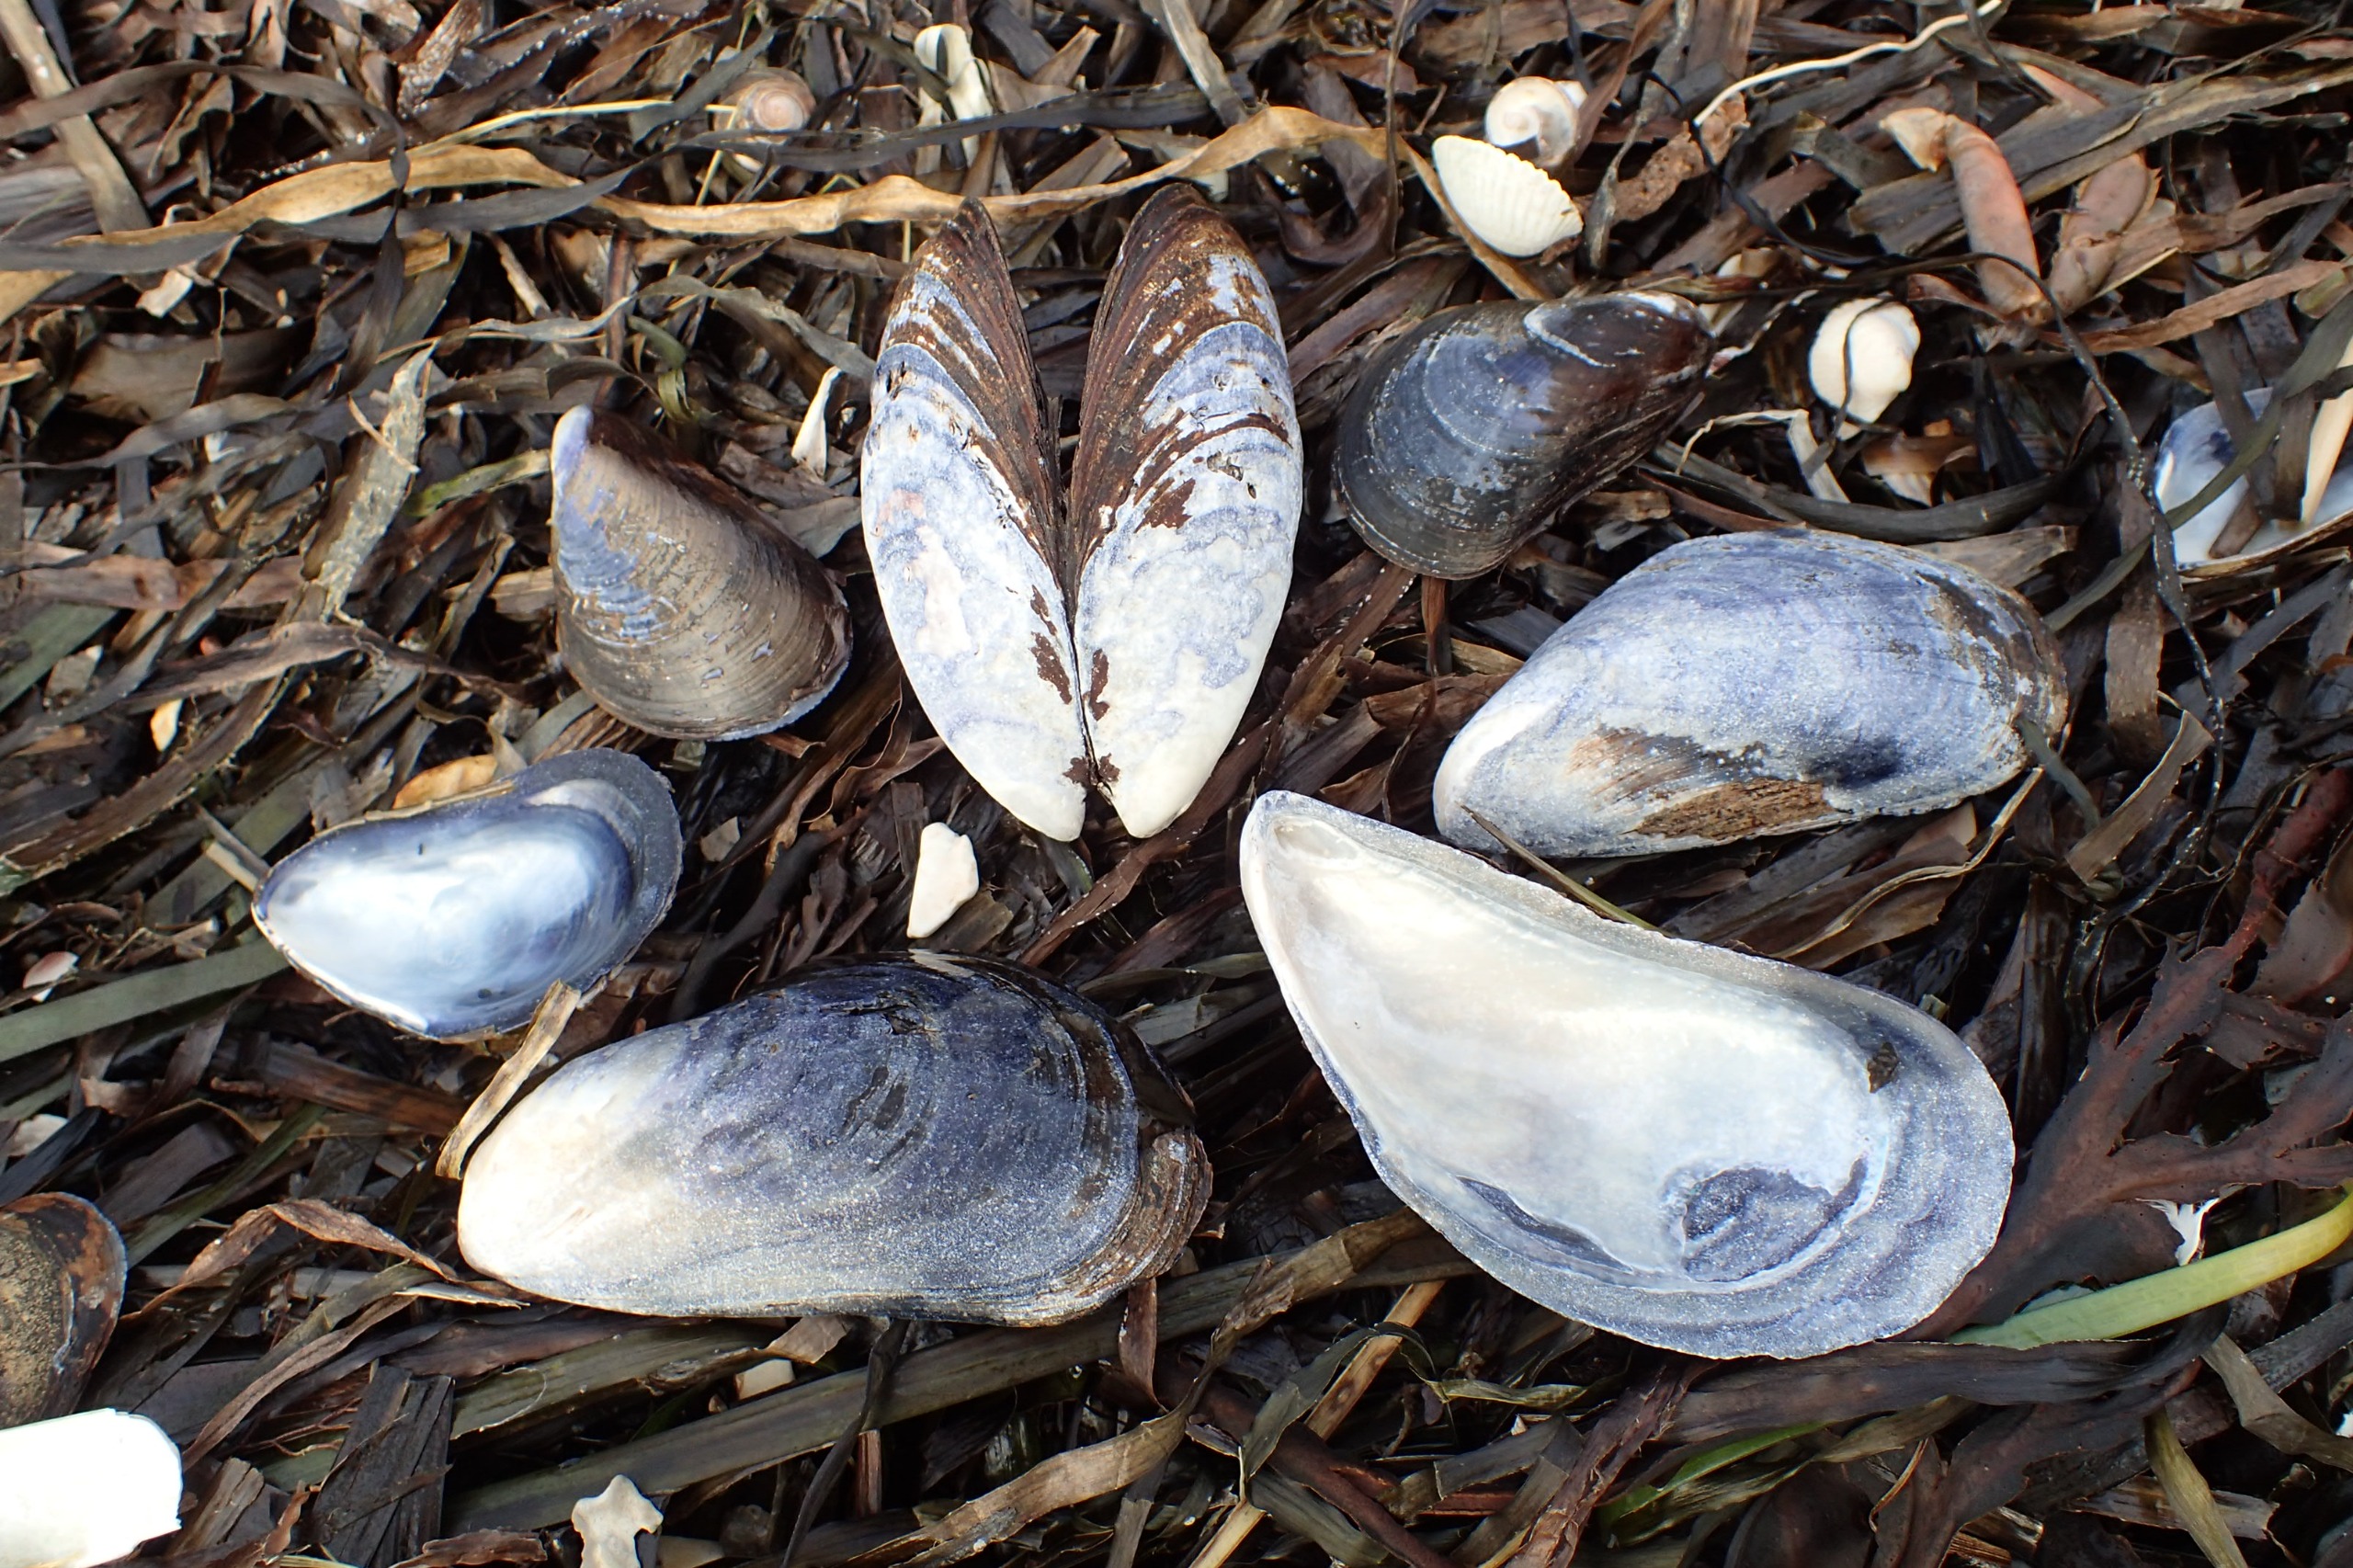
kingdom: Animalia
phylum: Mollusca
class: Bivalvia
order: Mytilida
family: Mytilidae
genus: Mytilus
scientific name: Mytilus edulis
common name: Blåmusling
